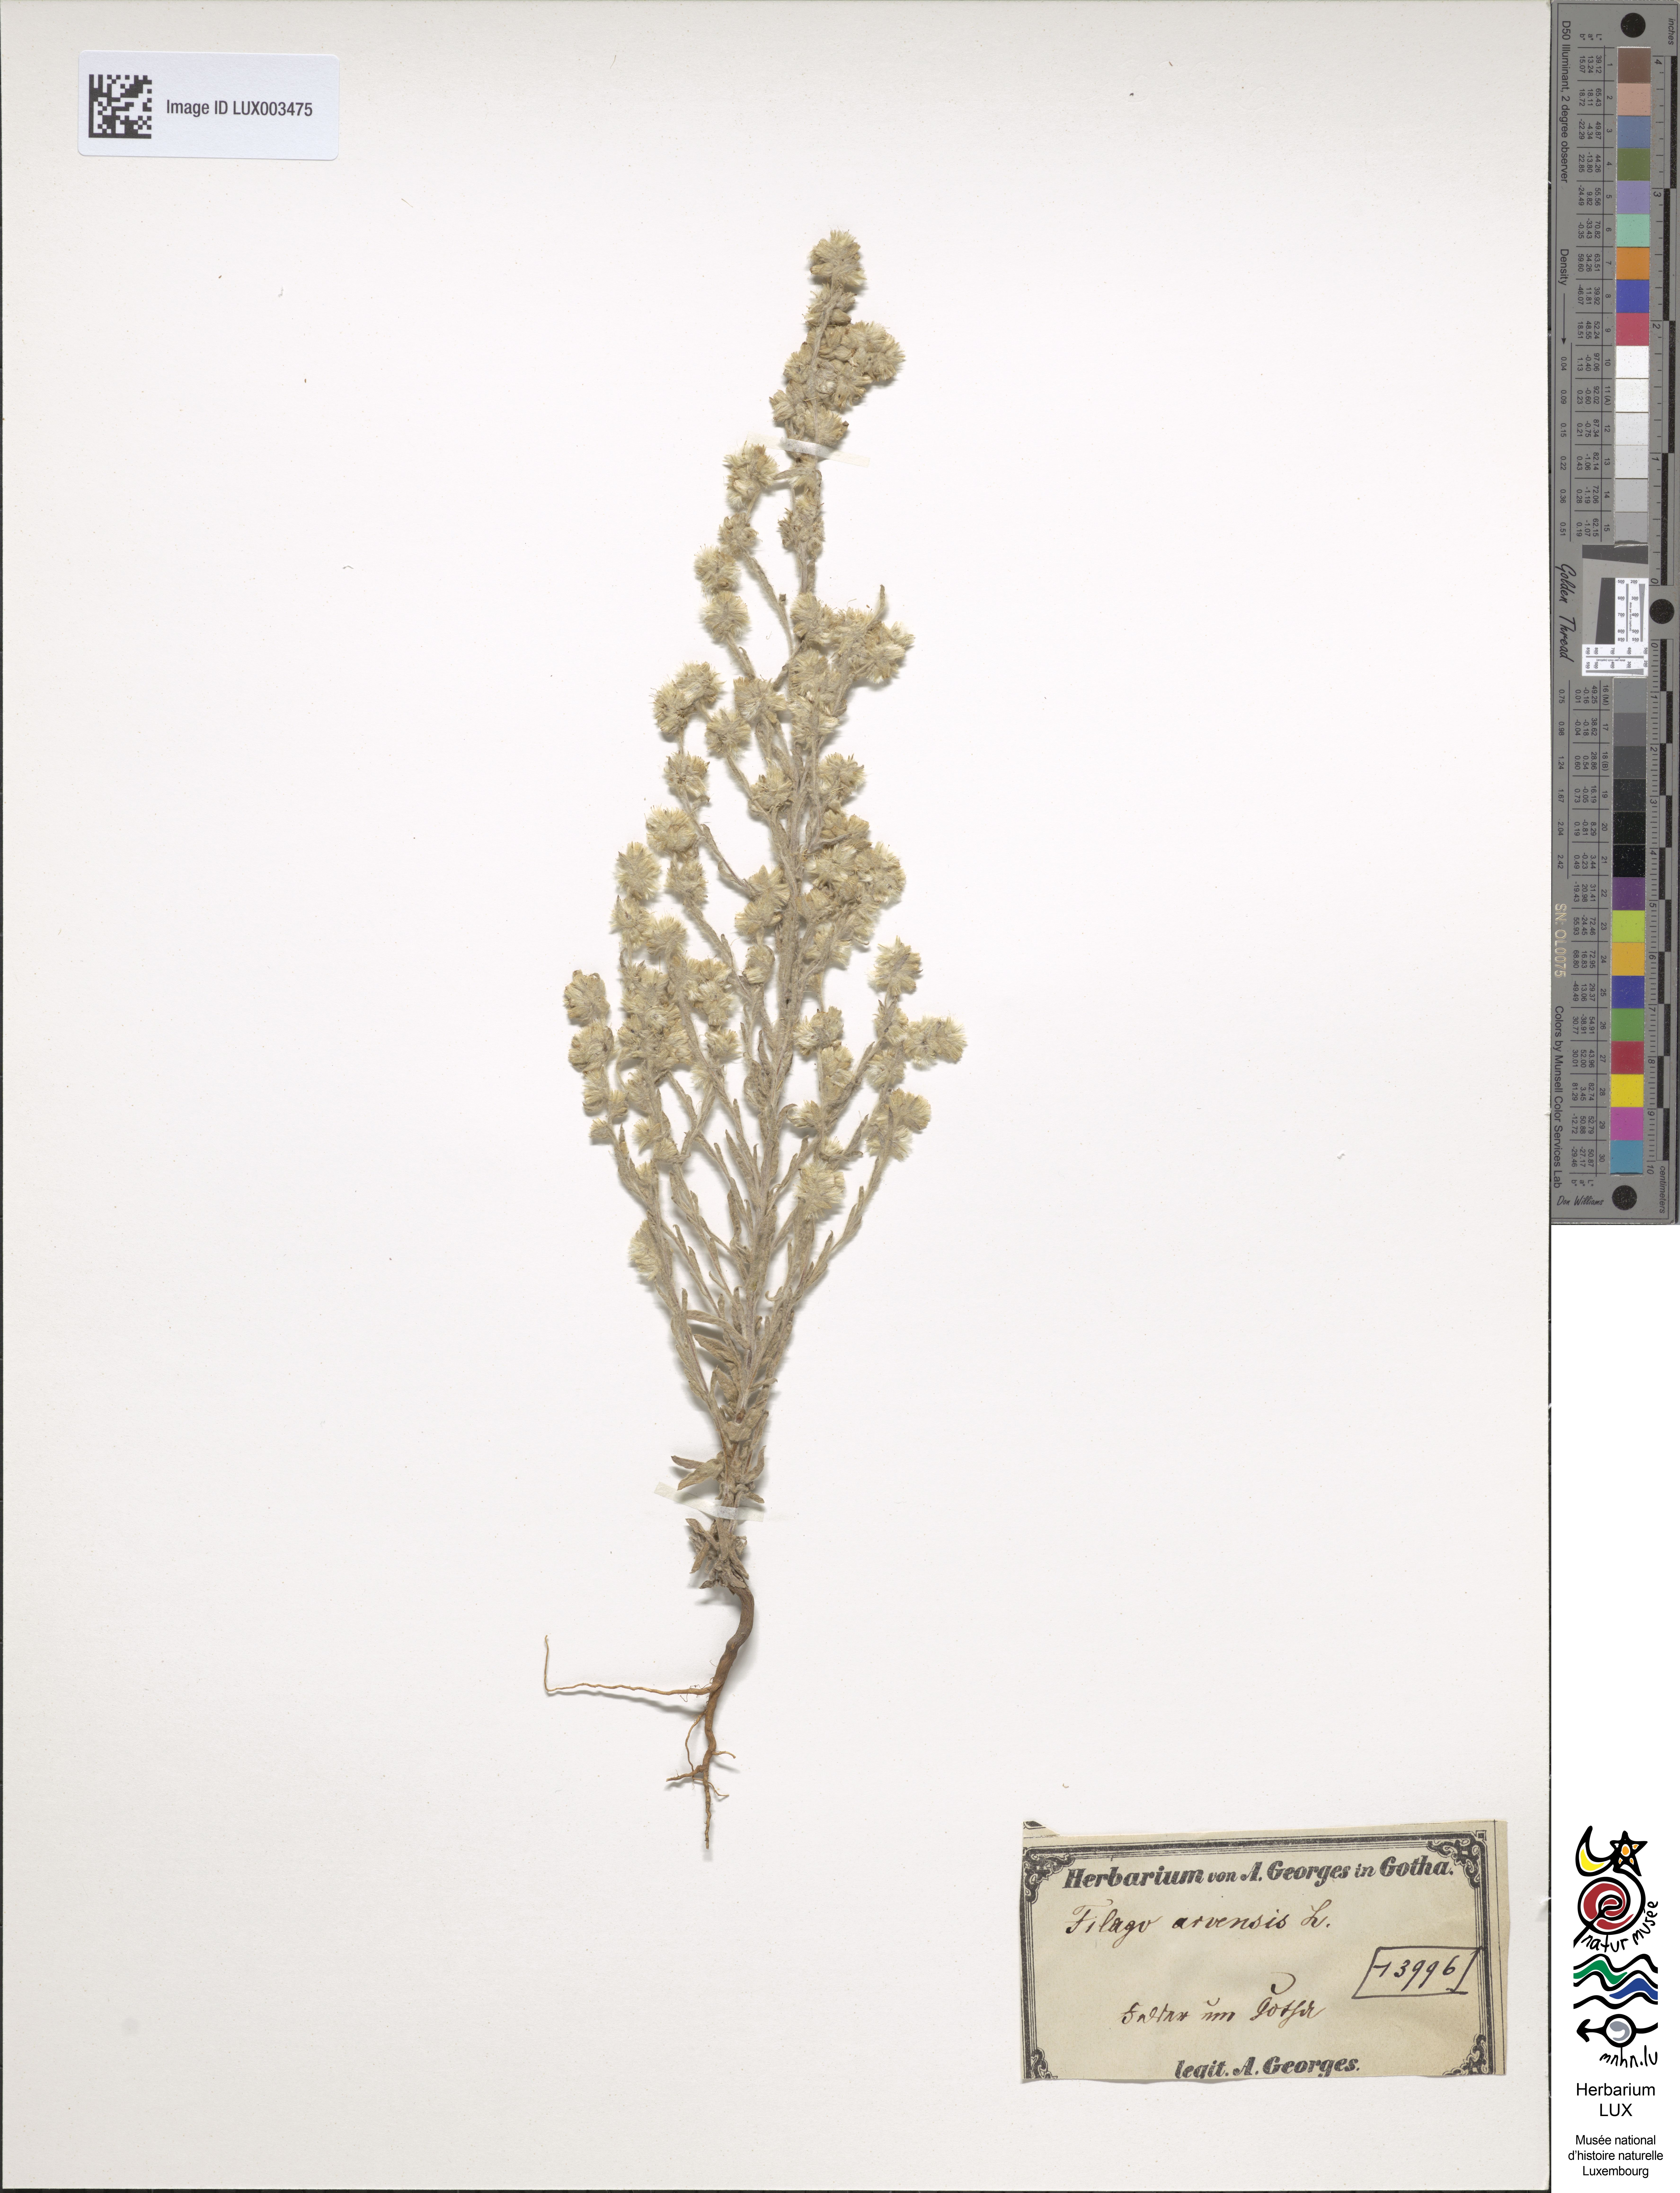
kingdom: Plantae
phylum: Tracheophyta
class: Magnoliopsida
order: Asterales
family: Asteraceae
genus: Filago
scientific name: Filago arvensis
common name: Field cudweed
